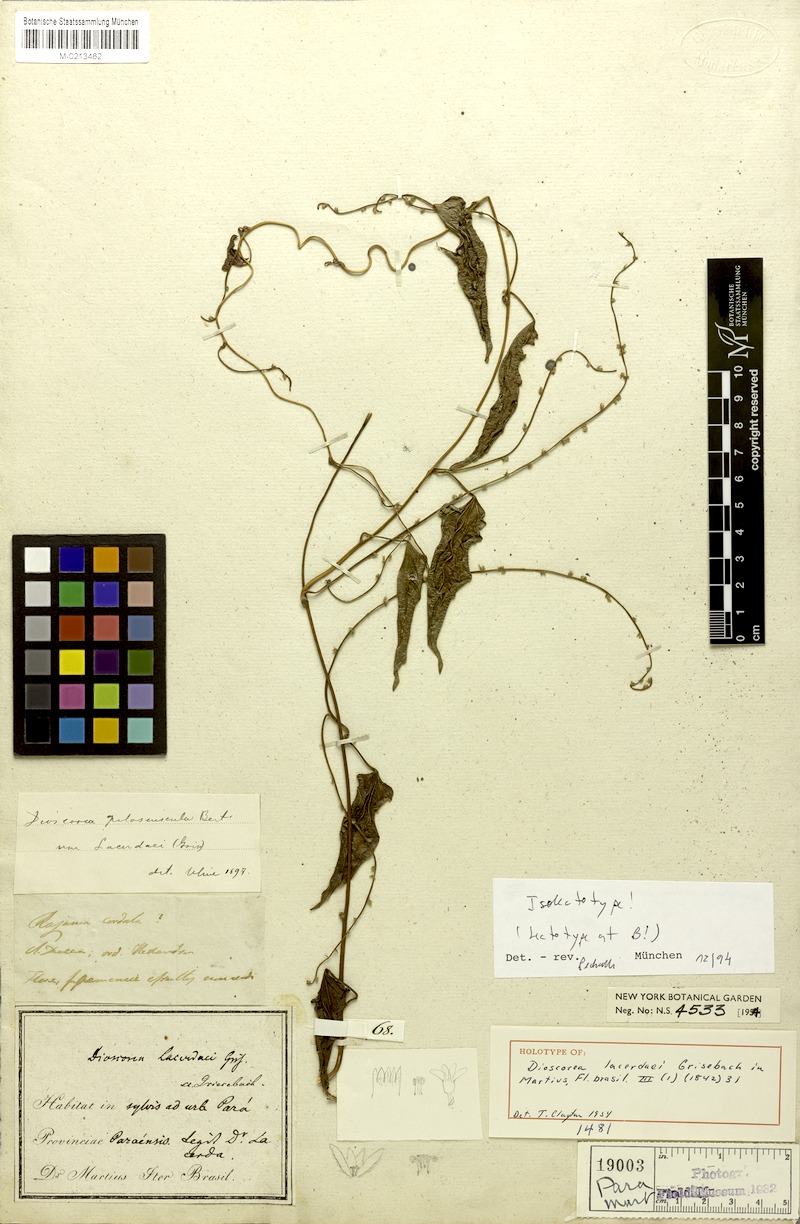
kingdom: Plantae
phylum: Tracheophyta
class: Liliopsida
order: Dioscoreales
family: Dioscoreaceae
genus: Dioscorea
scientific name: Dioscorea lacerdaei
